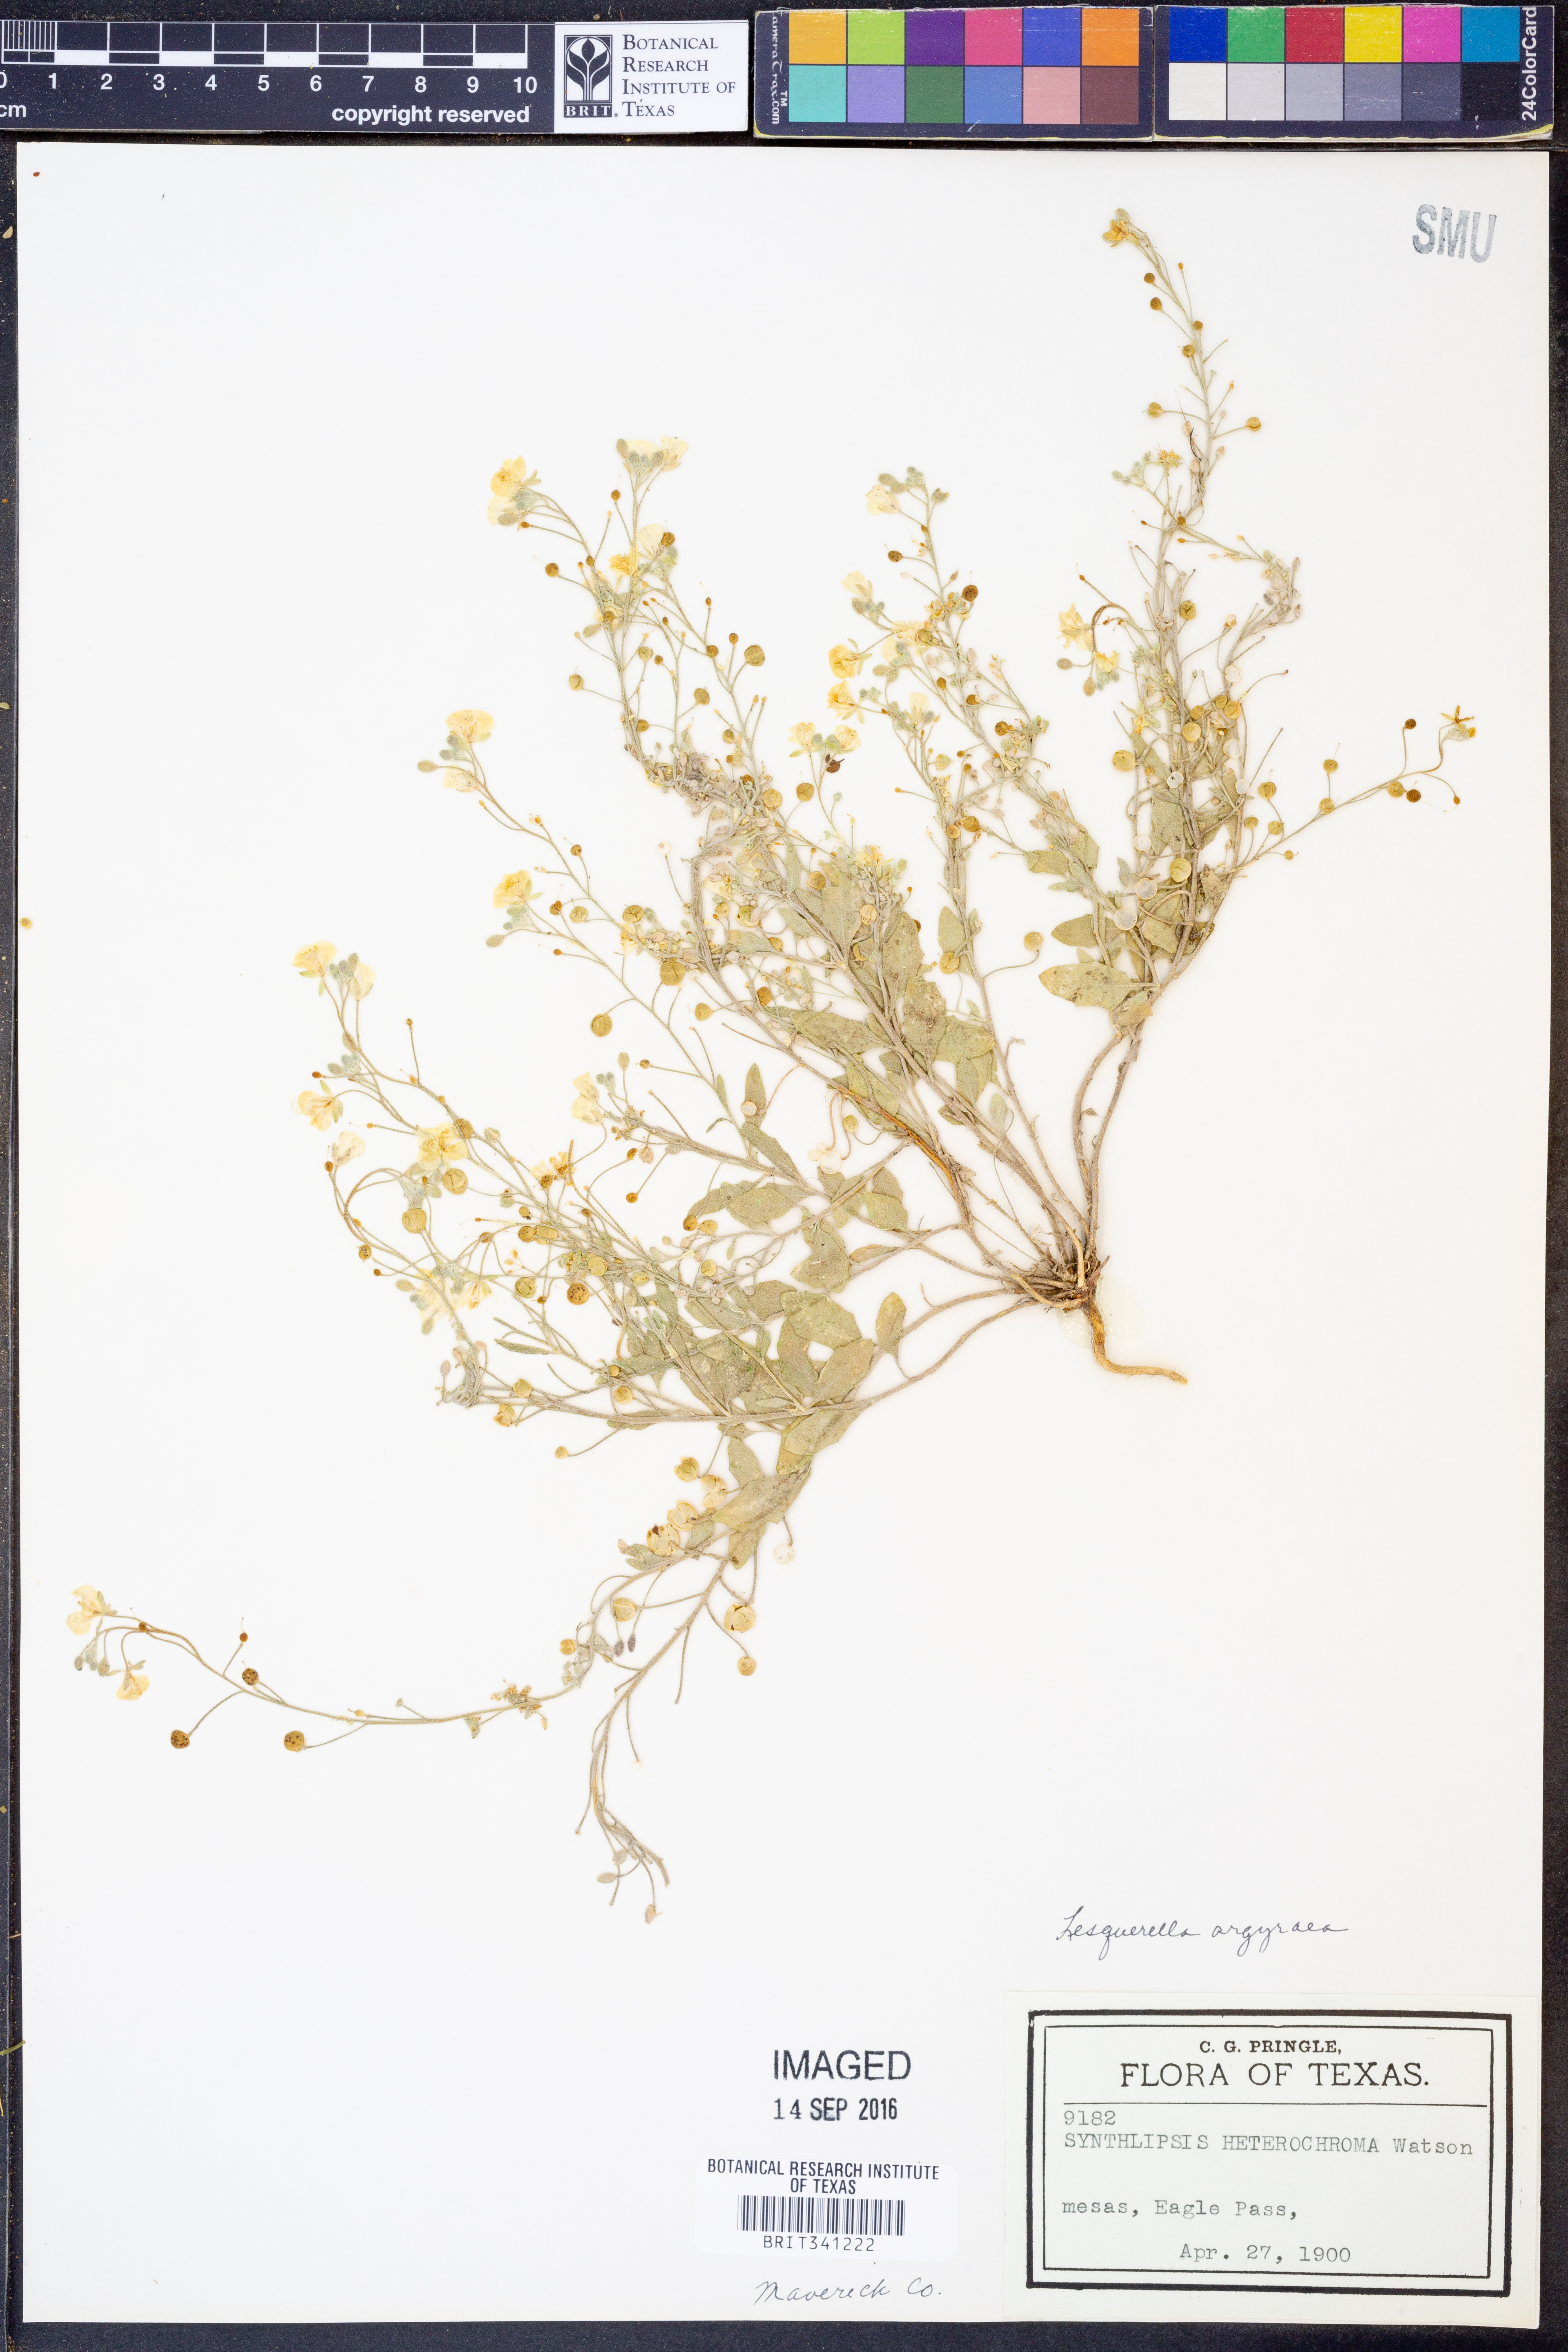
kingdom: Plantae
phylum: Tracheophyta
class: Magnoliopsida
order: Brassicales
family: Brassicaceae
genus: Physaria
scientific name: Physaria argyraea
